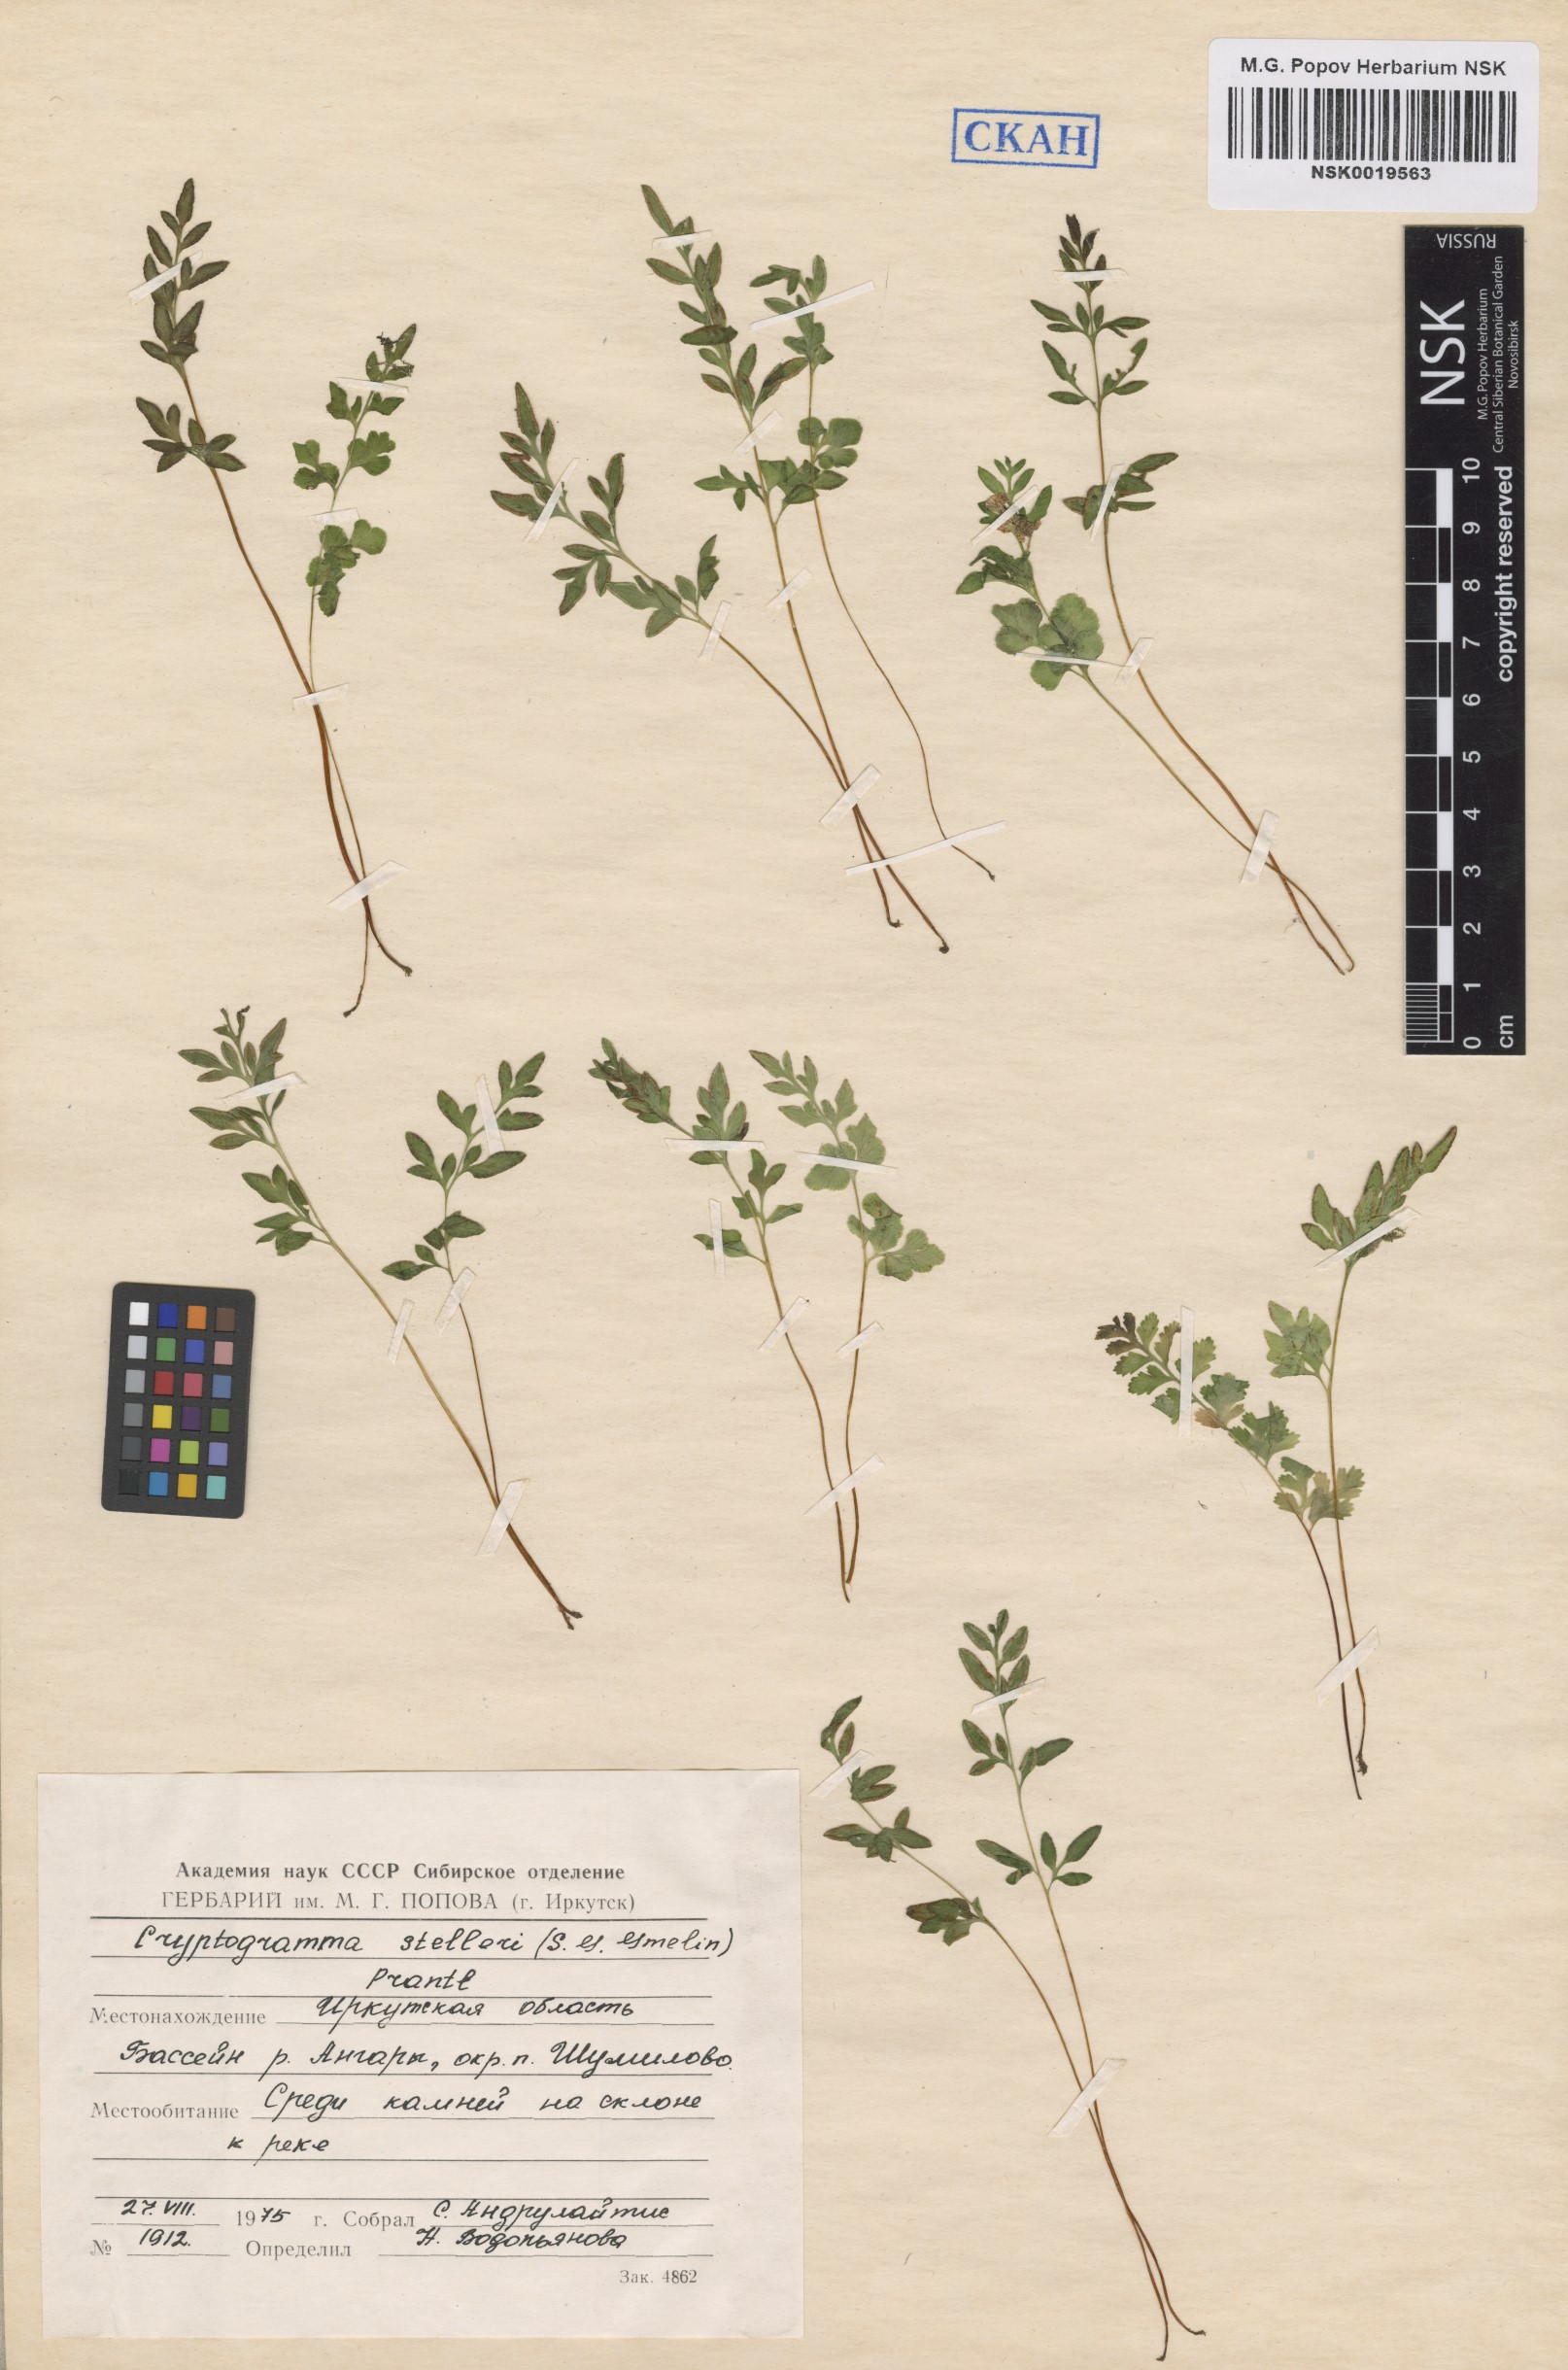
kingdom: Plantae
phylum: Tracheophyta
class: Polypodiopsida
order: Polypodiales
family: Pteridaceae
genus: Cryptogramma
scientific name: Cryptogramma stelleri
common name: Cliff-brake
